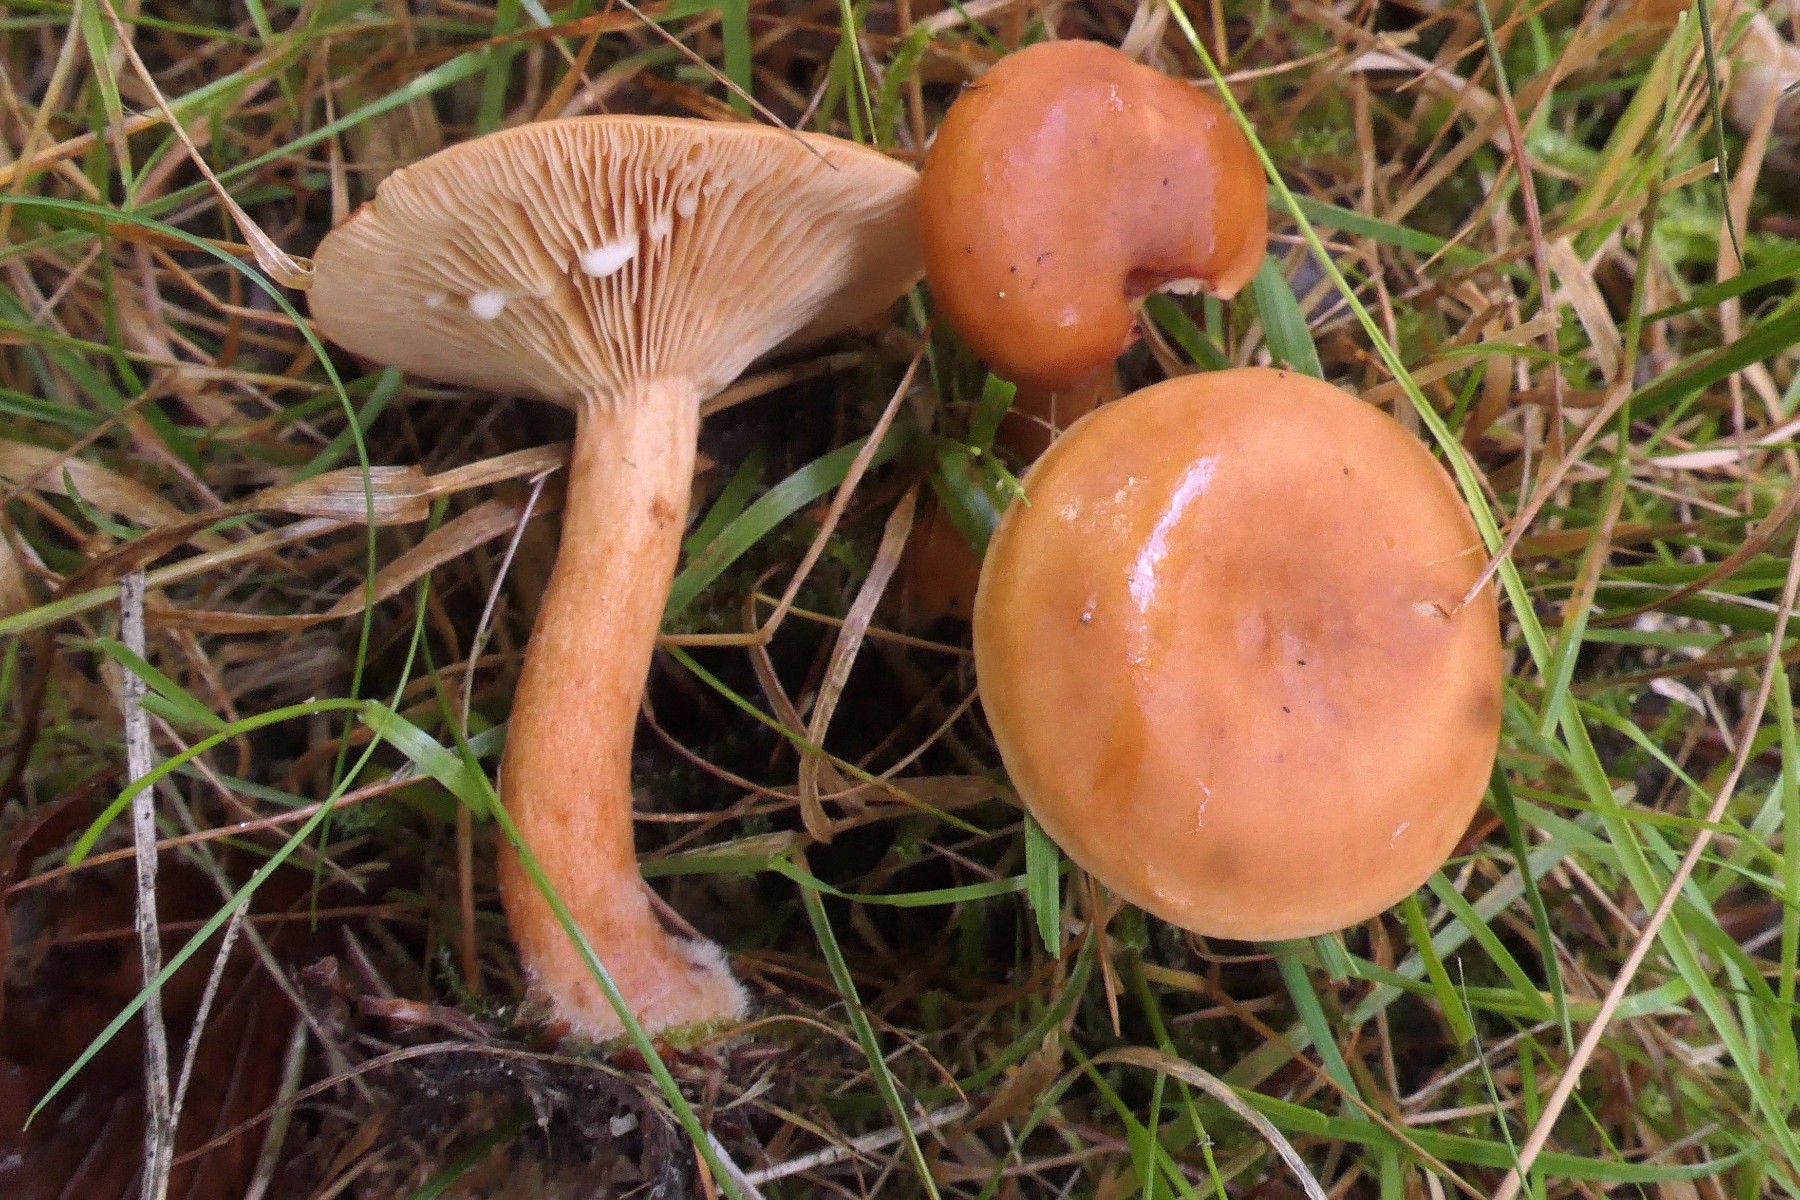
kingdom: Fungi
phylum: Basidiomycota
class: Agaricomycetes
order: Russulales
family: Russulaceae
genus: Lactarius
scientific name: Lactarius fulvissimus
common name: ræve-mælkehat
